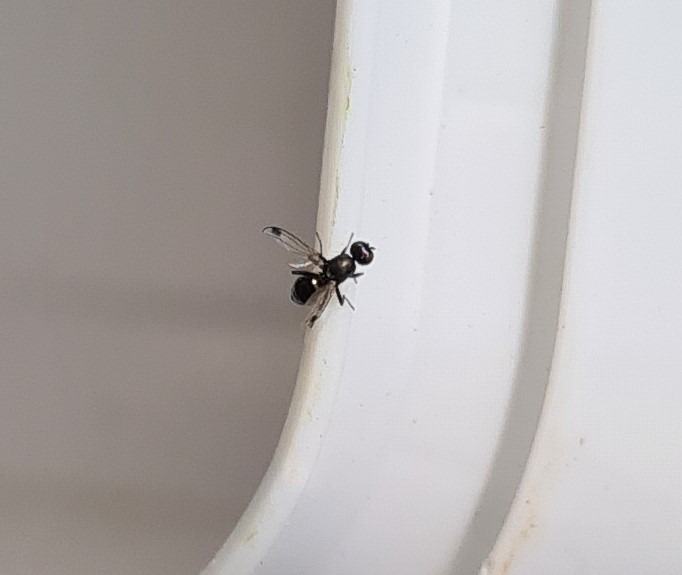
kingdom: Animalia
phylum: Arthropoda
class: Insecta
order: Diptera
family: Sepsidae
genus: Sepsis
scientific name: Sepsis
